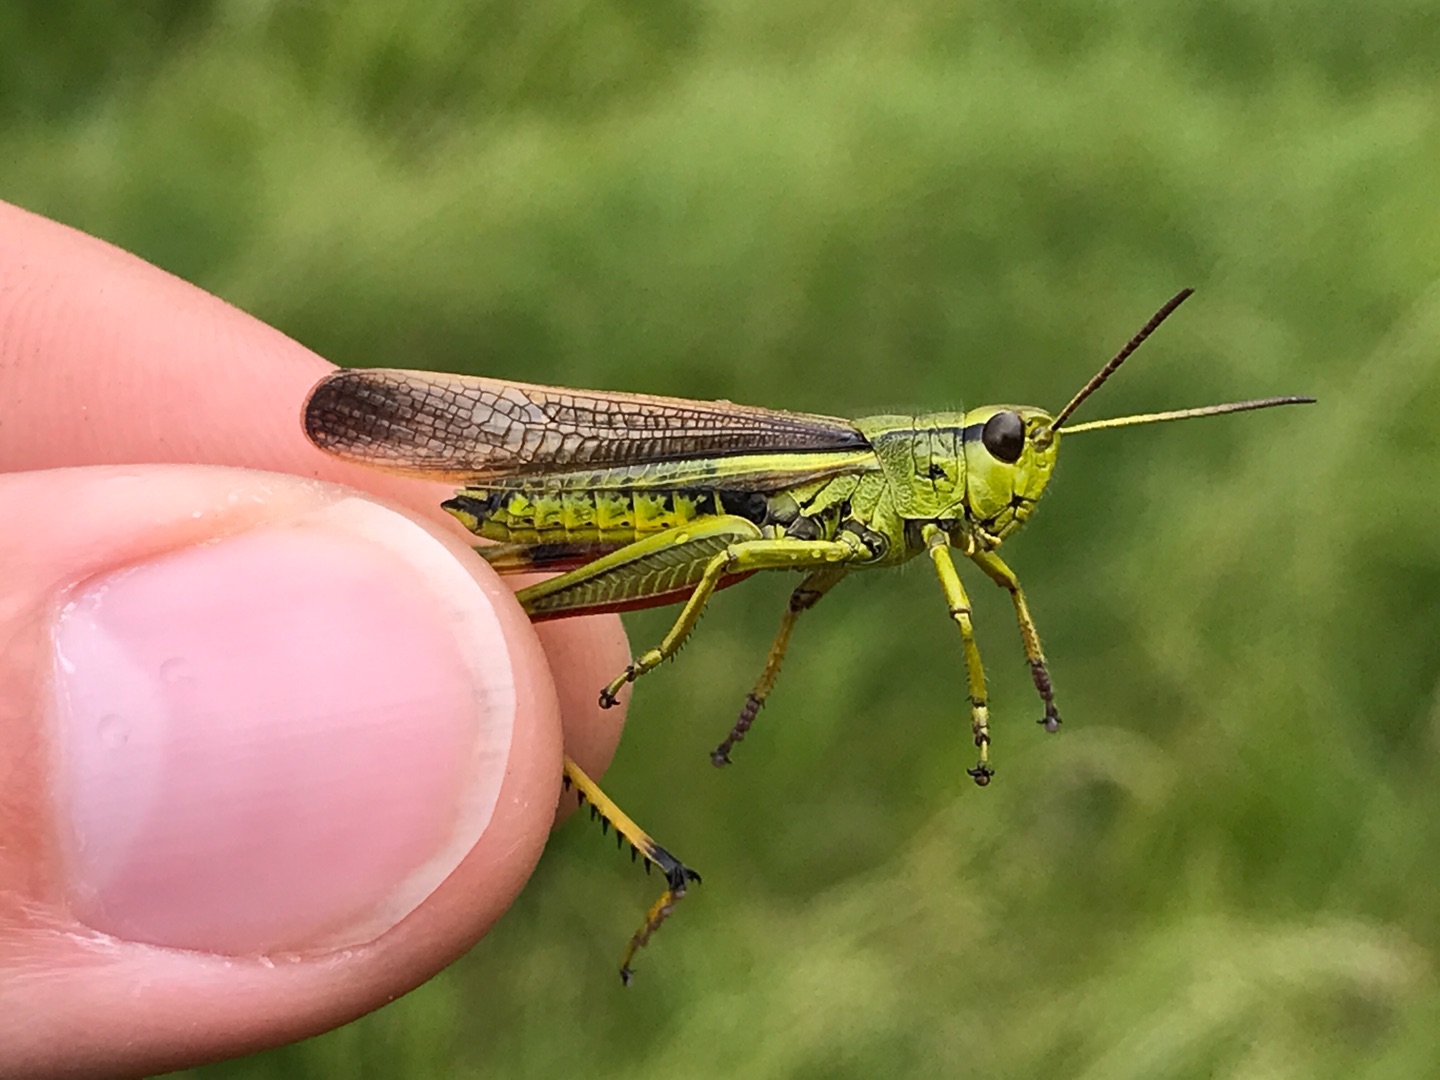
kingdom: Animalia
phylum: Arthropoda
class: Insecta
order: Orthoptera
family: Acrididae
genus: Stethophyma
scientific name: Stethophyma grossum
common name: Sumpgræshoppe
